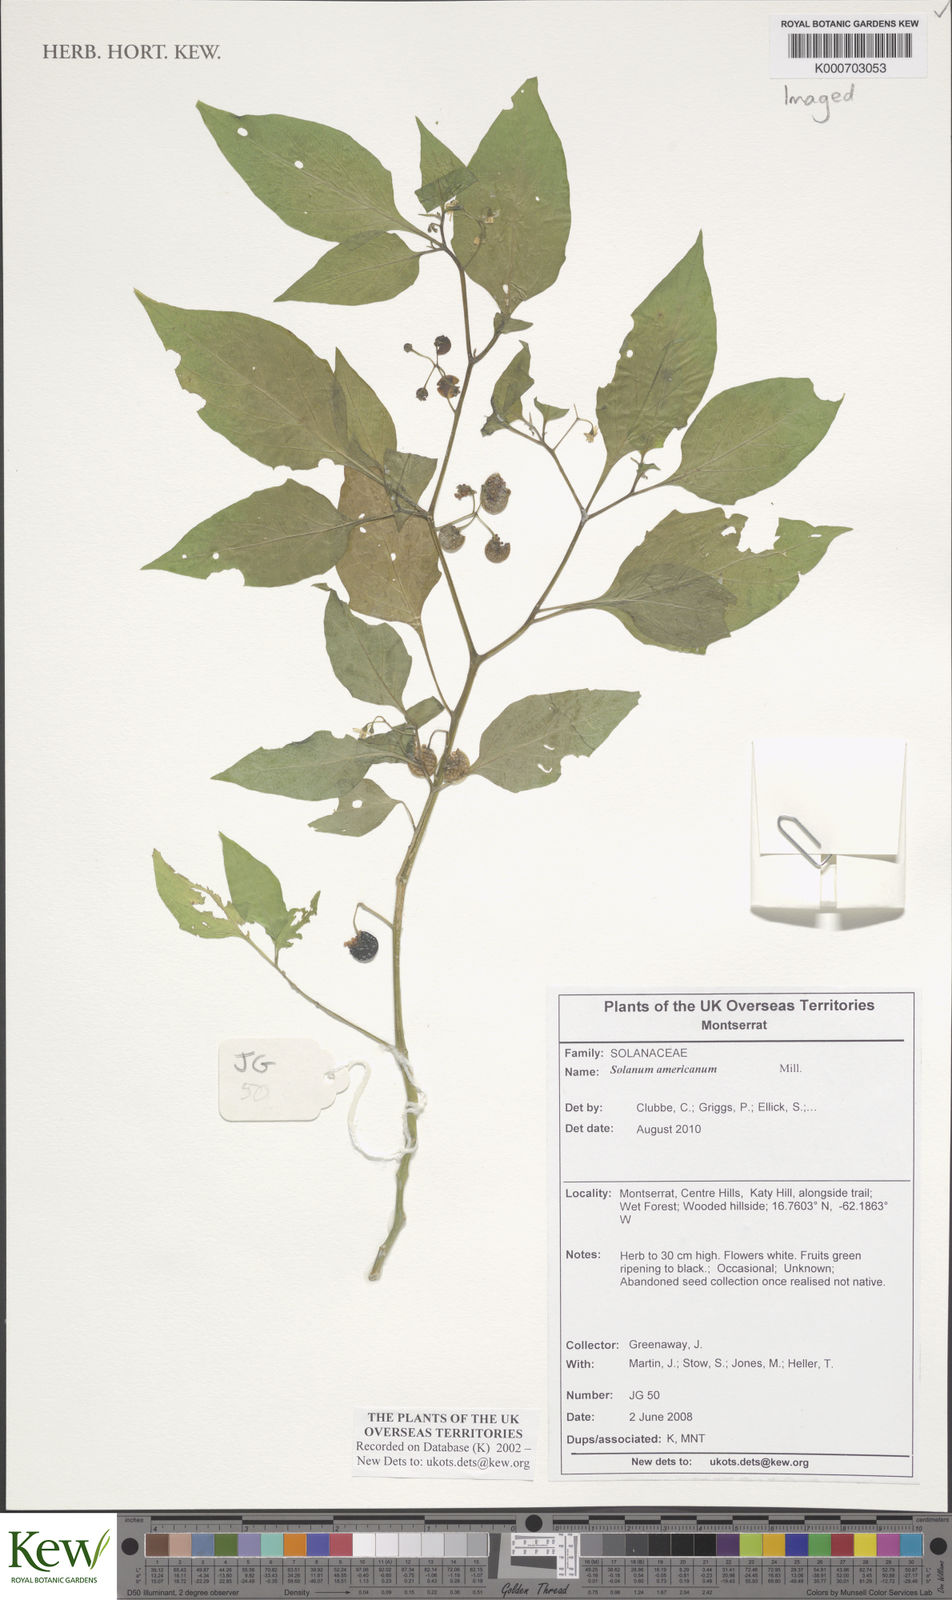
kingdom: Plantae
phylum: Tracheophyta
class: Magnoliopsida
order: Solanales
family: Solanaceae
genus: Solanum
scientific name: Solanum americanum
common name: American black nightshade
